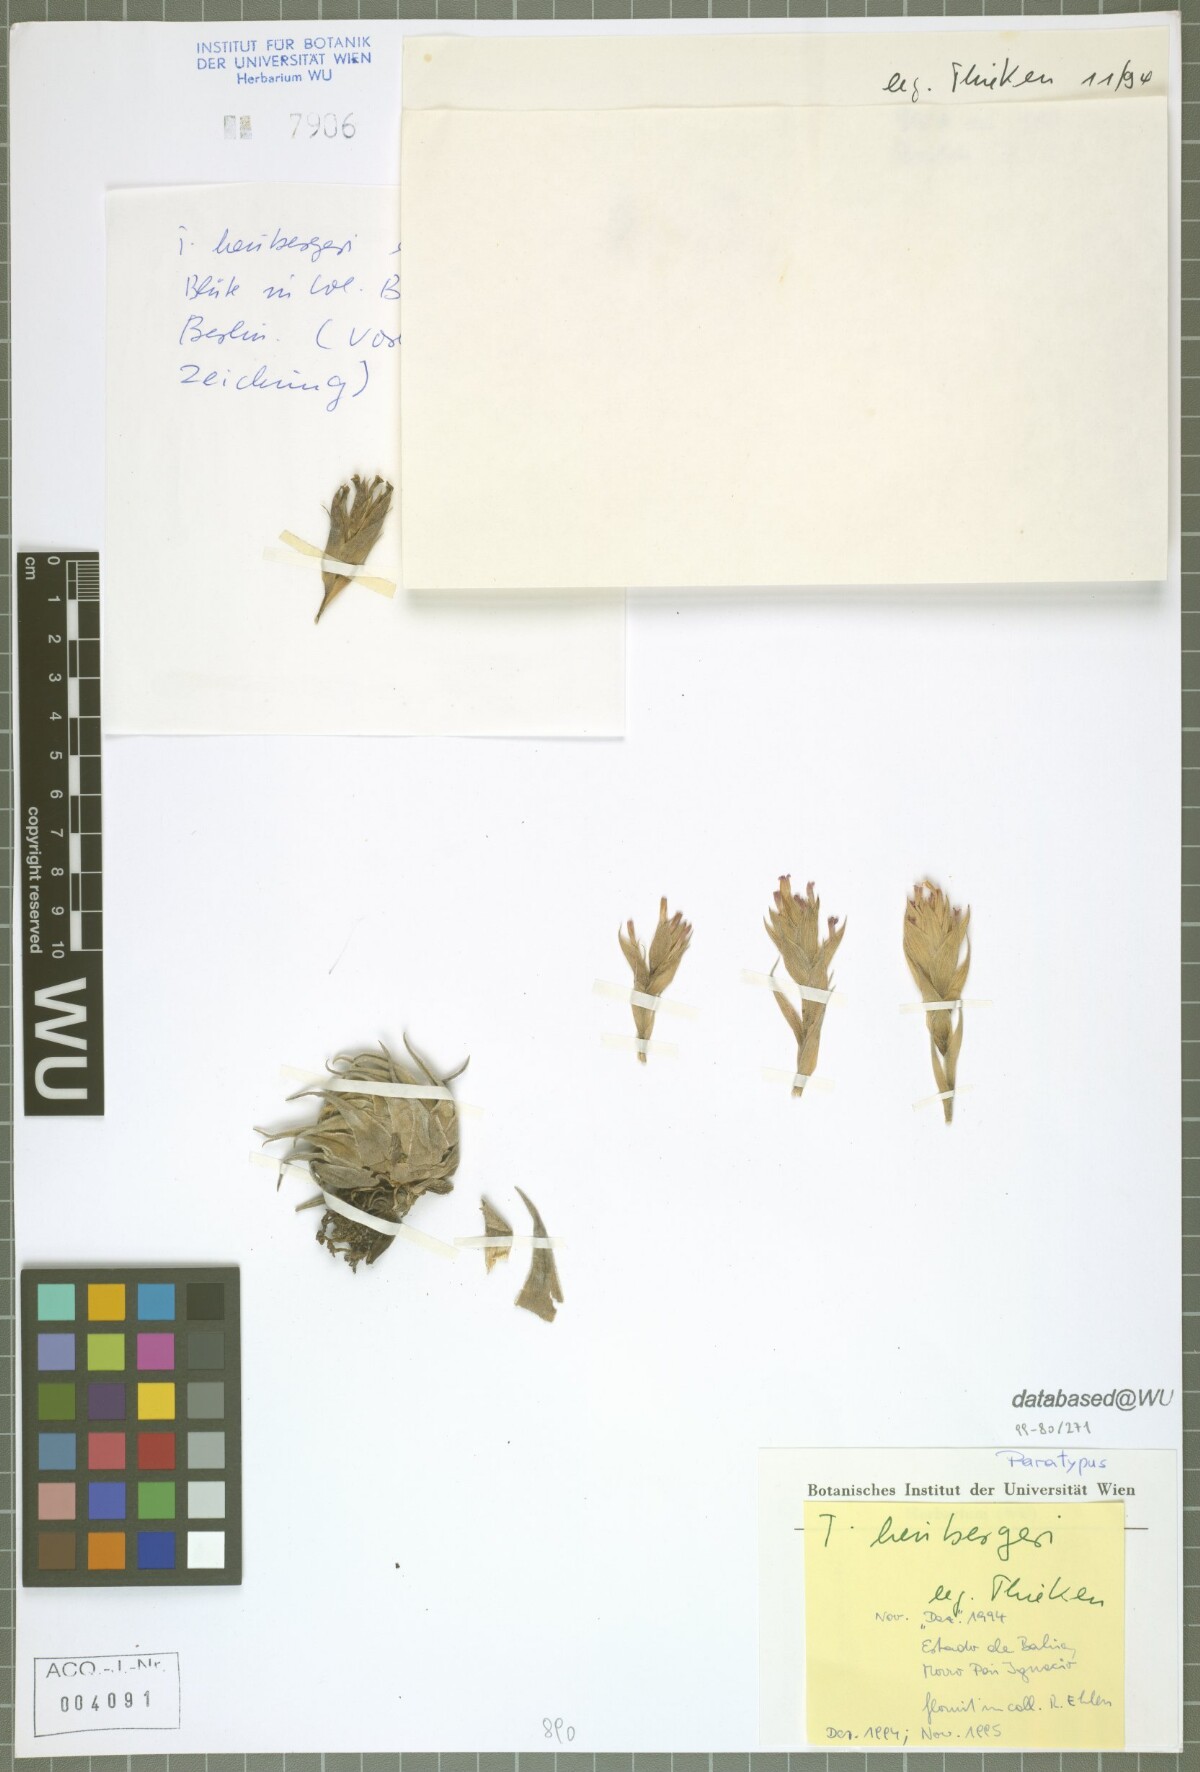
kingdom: Plantae
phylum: Tracheophyta
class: Liliopsida
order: Poales
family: Bromeliaceae
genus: Tillandsia
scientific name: Tillandsia heubergeri
